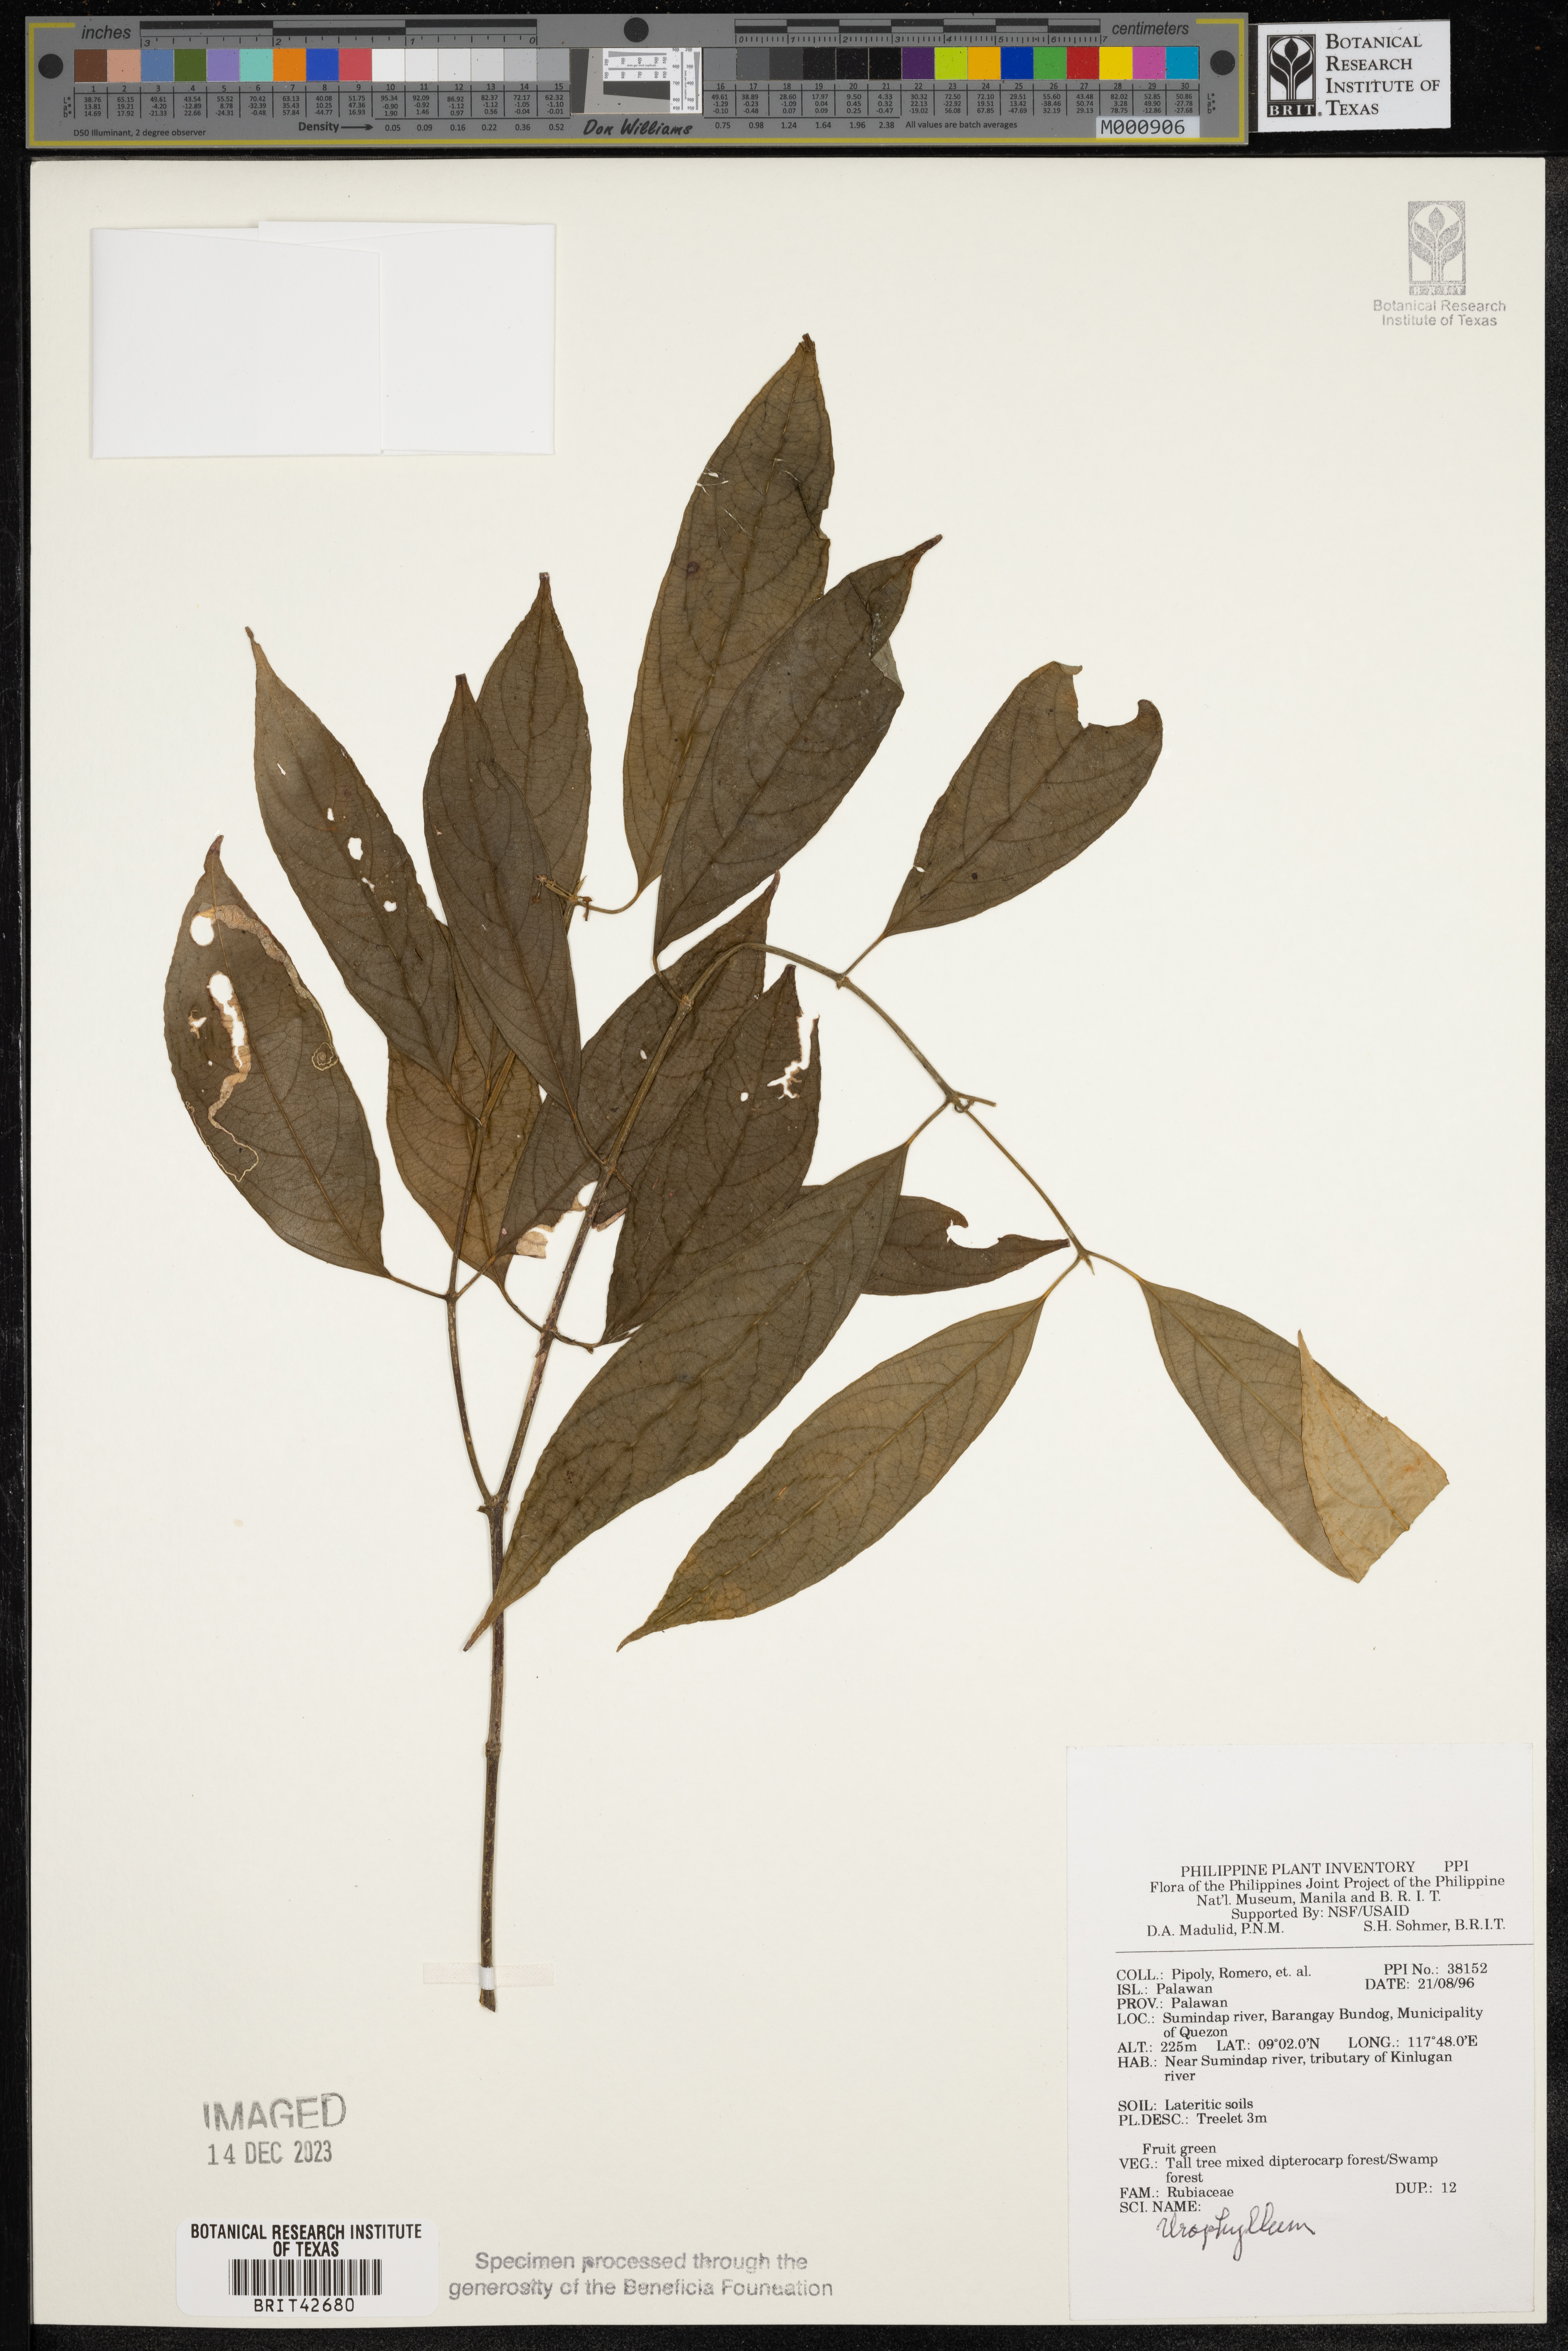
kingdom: Plantae
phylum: Tracheophyta
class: Magnoliopsida
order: Gentianales
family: Rubiaceae
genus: Urophyllum
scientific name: Urophyllum
